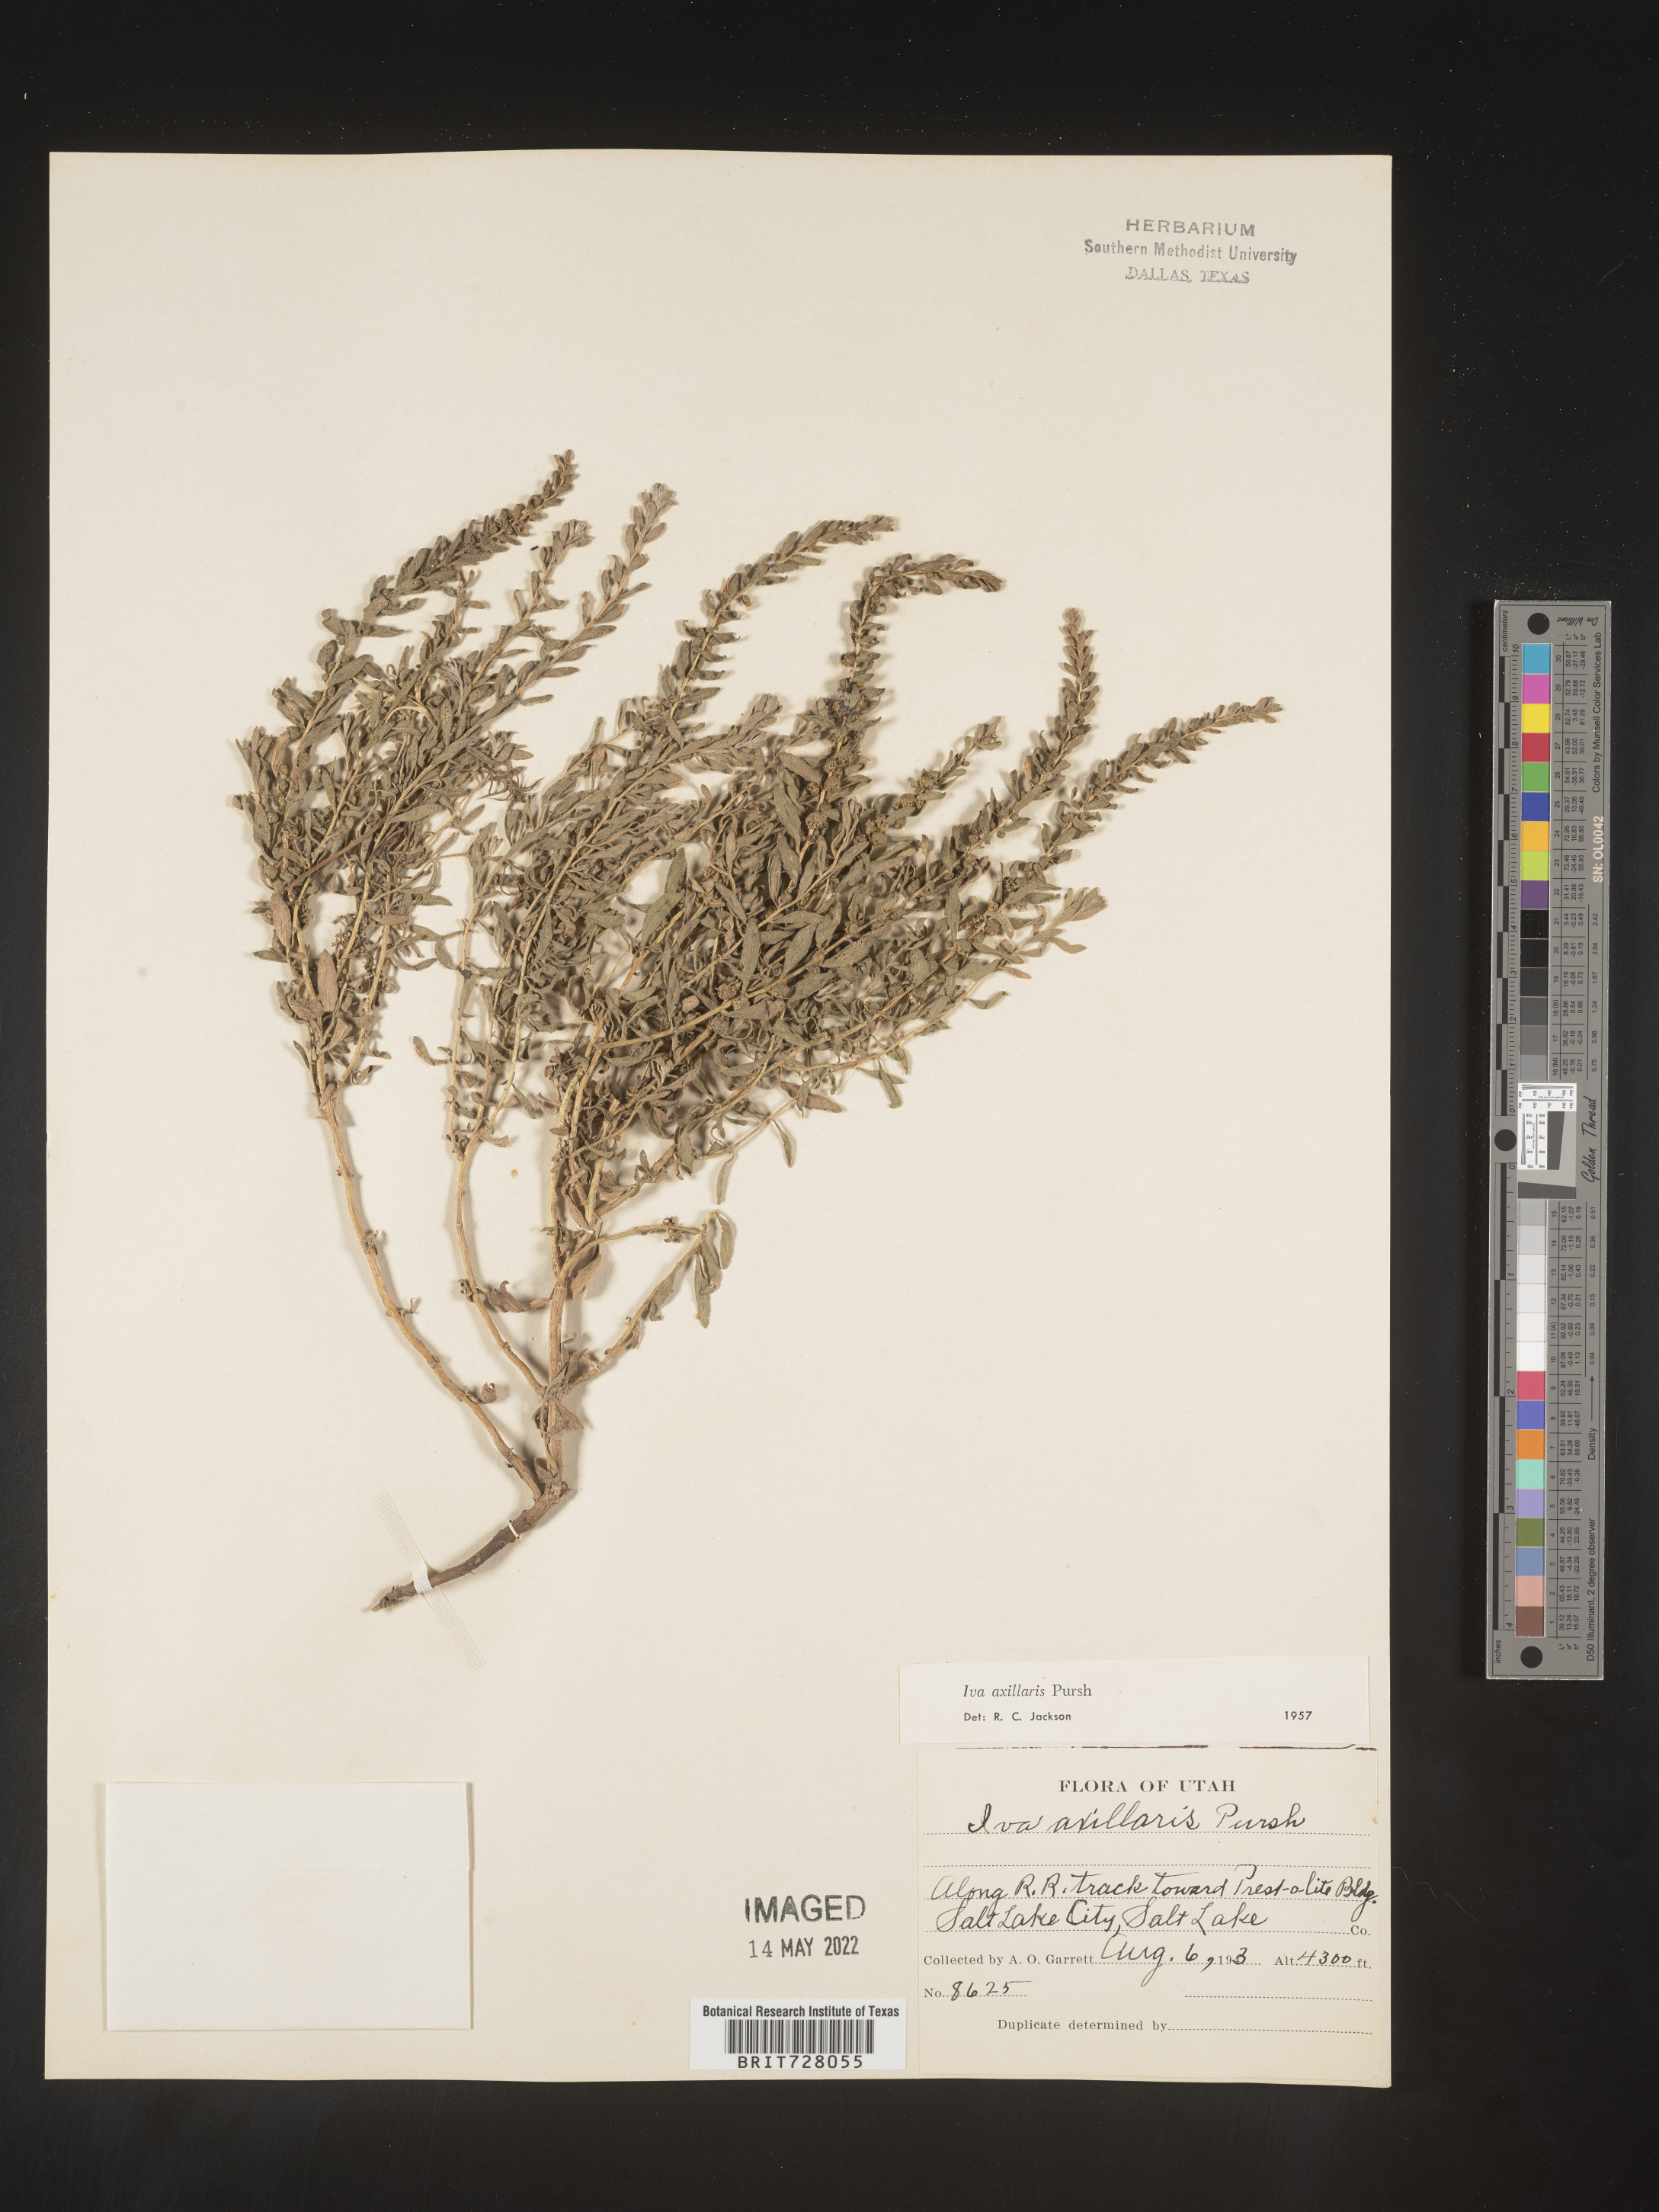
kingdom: Plantae
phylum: Tracheophyta
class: Magnoliopsida
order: Asterales
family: Asteraceae
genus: Iva
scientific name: Iva axillaris
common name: Poverty sumpweed
